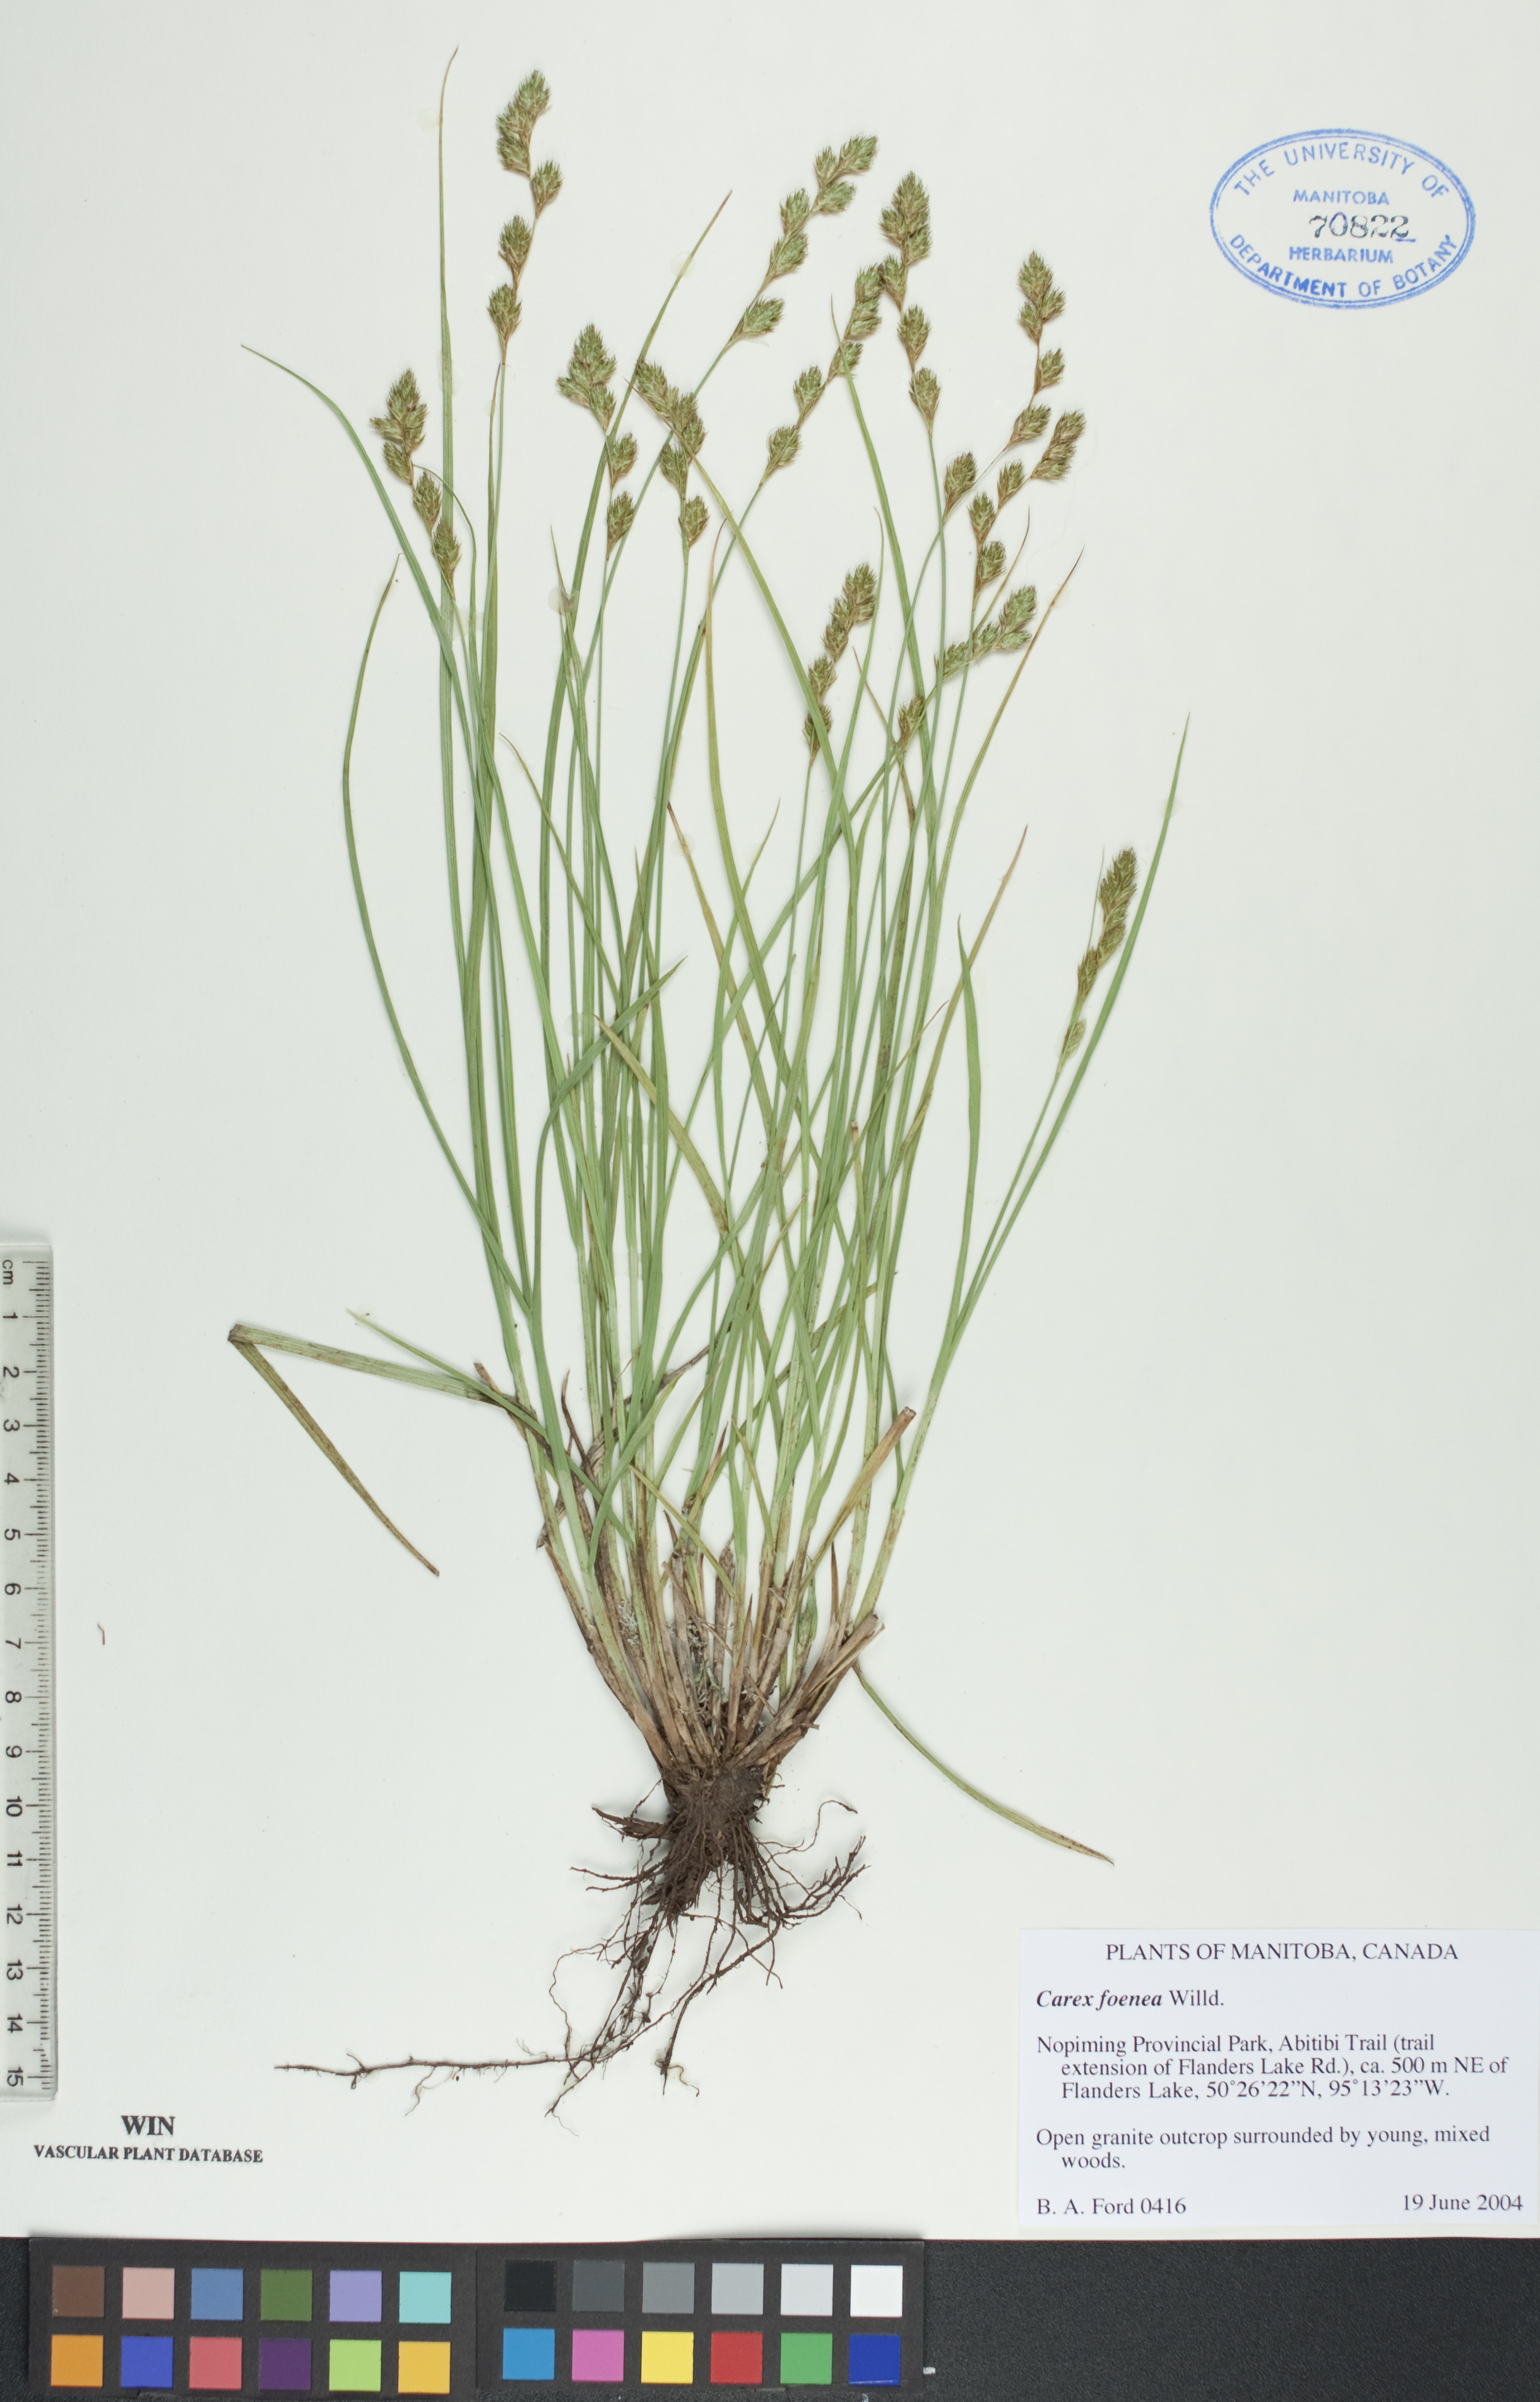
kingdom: Plantae
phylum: Tracheophyta
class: Liliopsida
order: Poales
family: Cyperaceae
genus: Carex
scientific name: Carex foenea
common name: Bronze sedge
